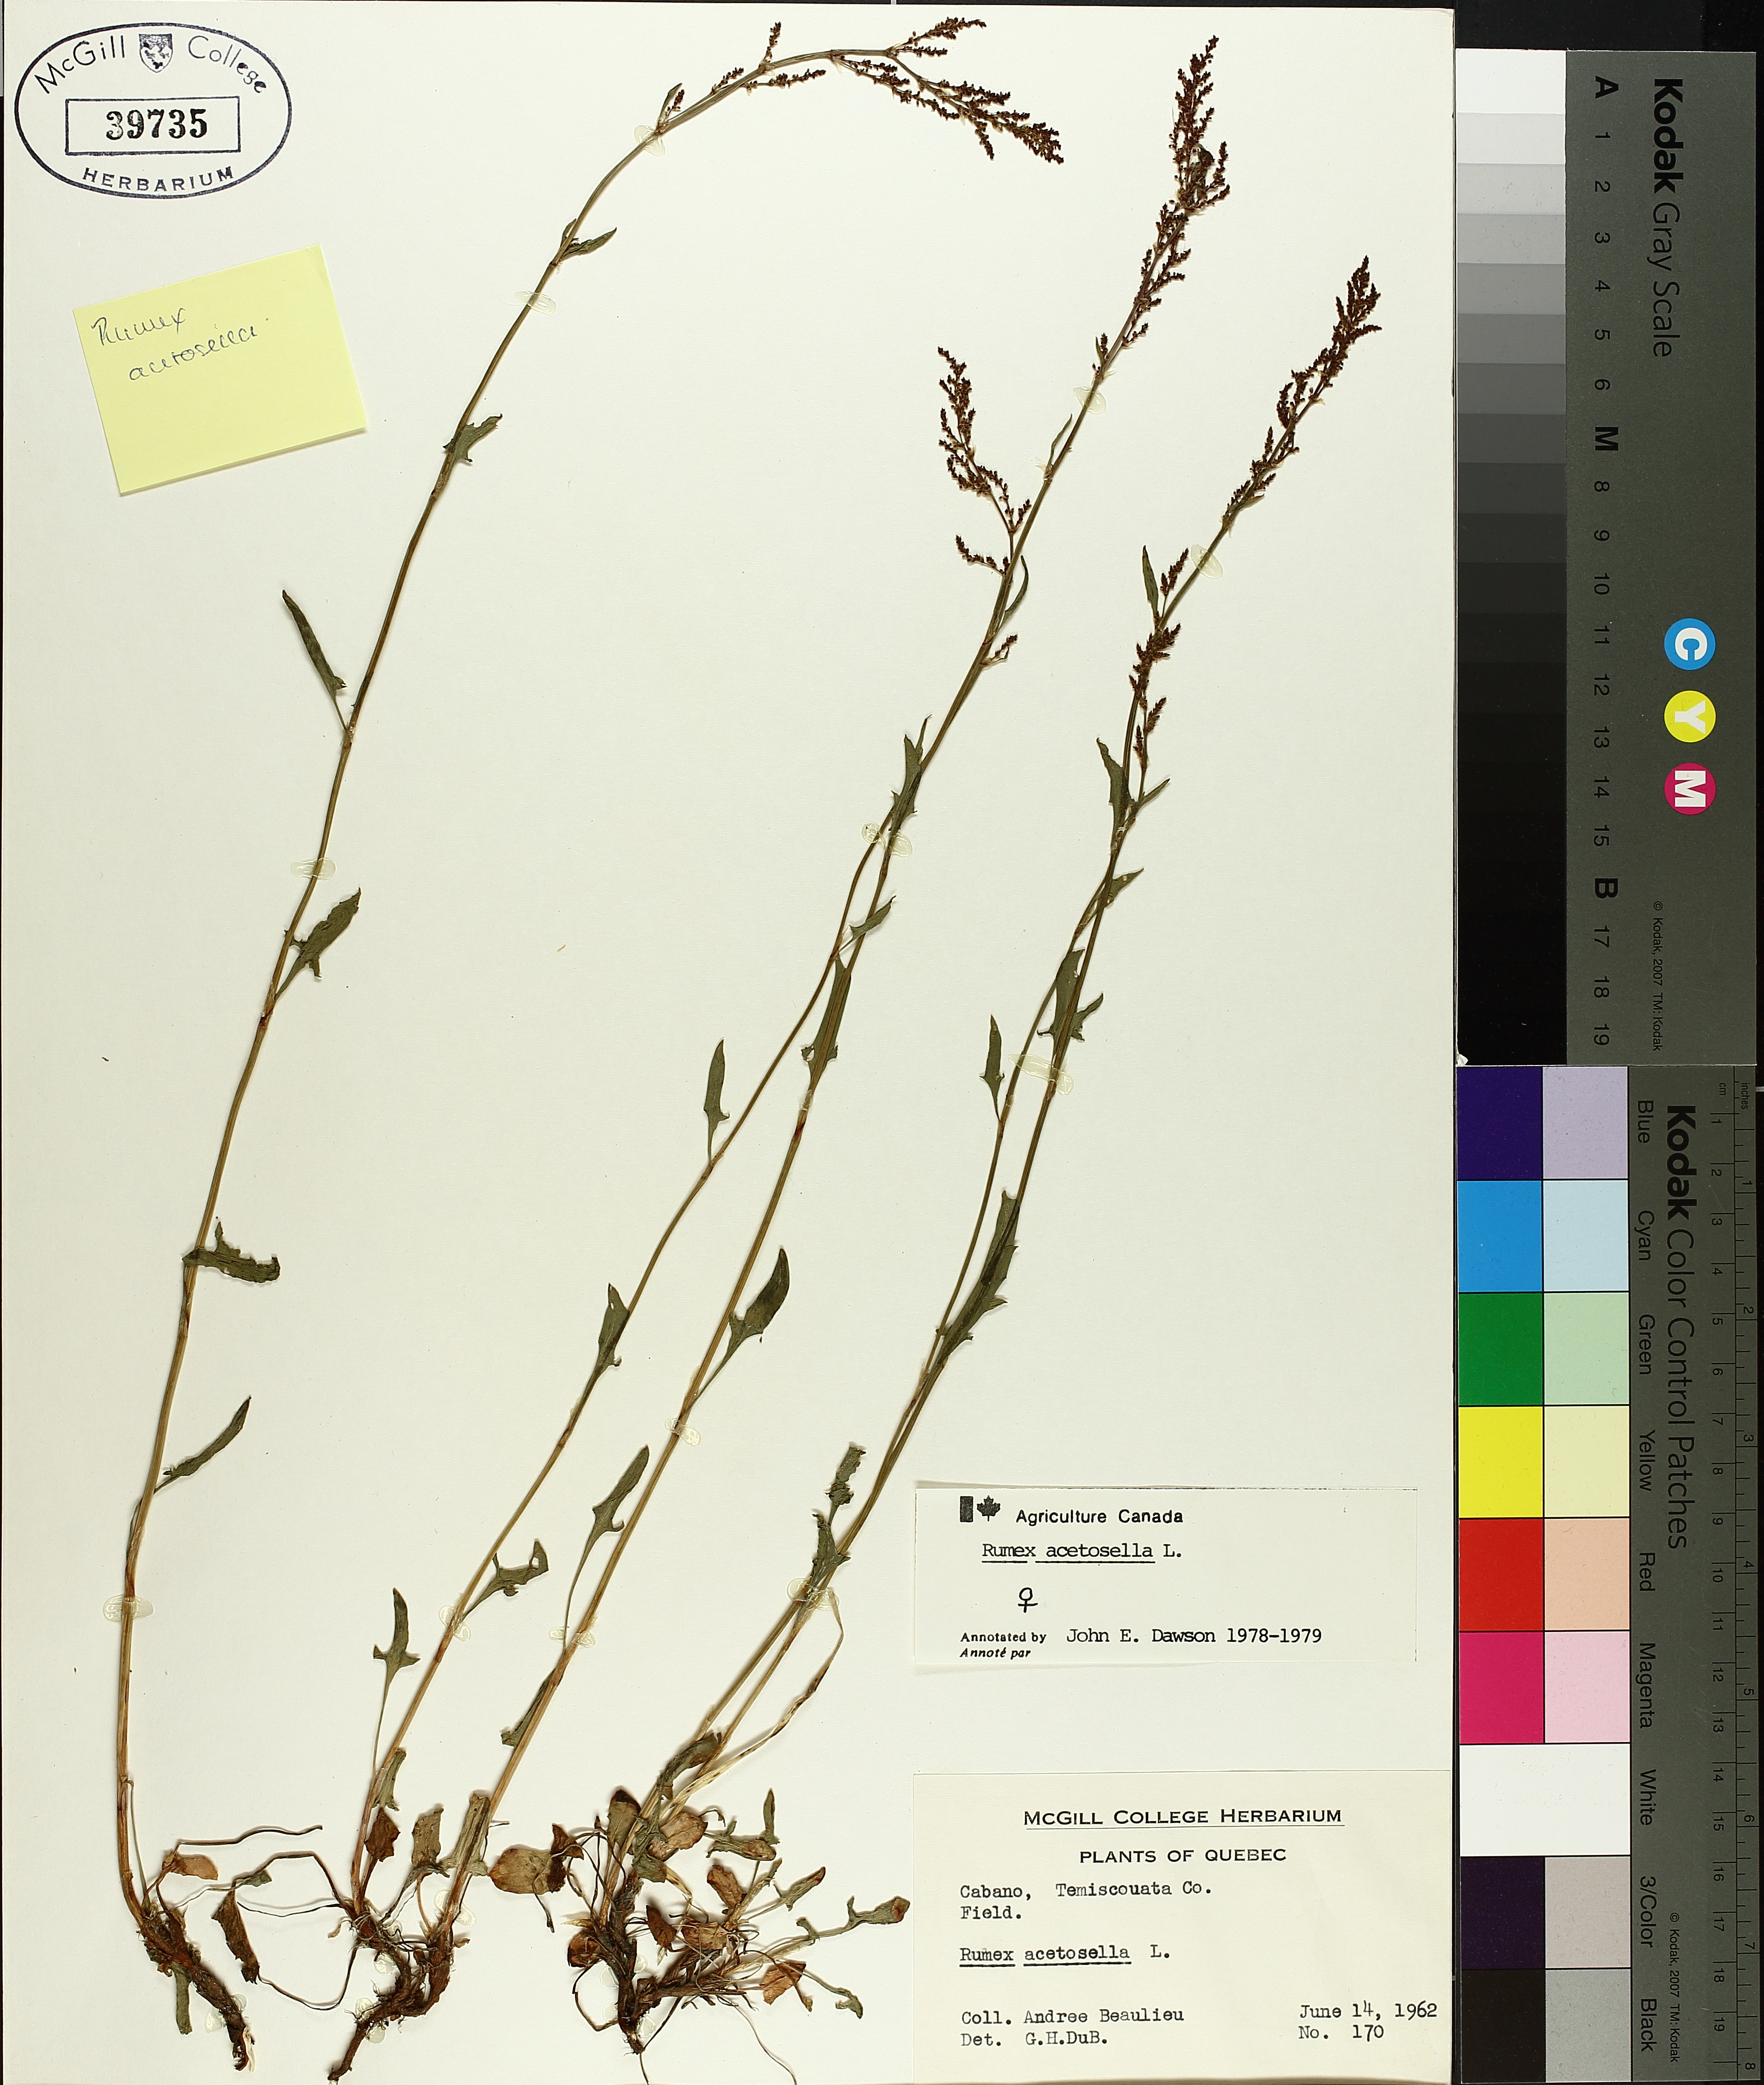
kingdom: Plantae
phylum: Tracheophyta
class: Magnoliopsida
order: Caryophyllales
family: Polygonaceae
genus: Rumex
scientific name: Rumex acetosella
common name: Common sheep sorrel
